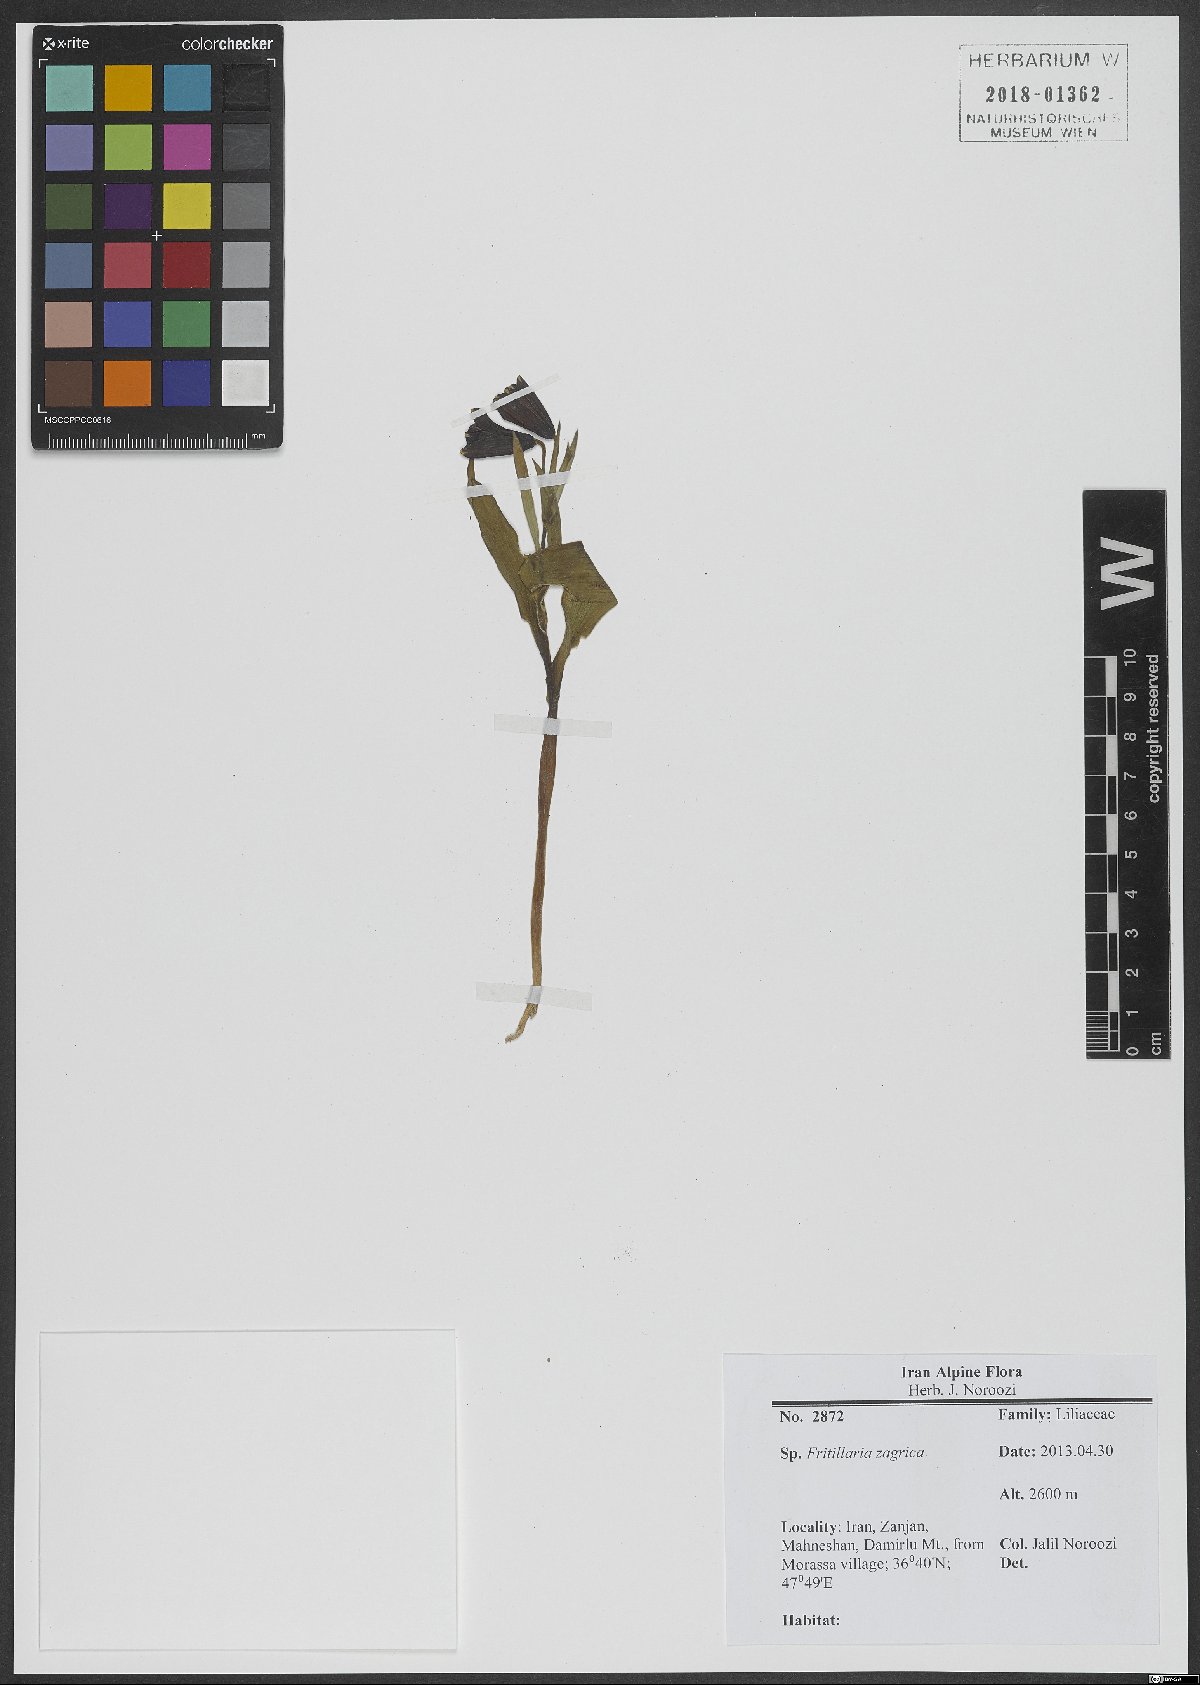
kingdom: Plantae
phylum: Tracheophyta
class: Liliopsida
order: Liliales
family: Liliaceae
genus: Fritillaria
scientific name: Fritillaria pinardii
